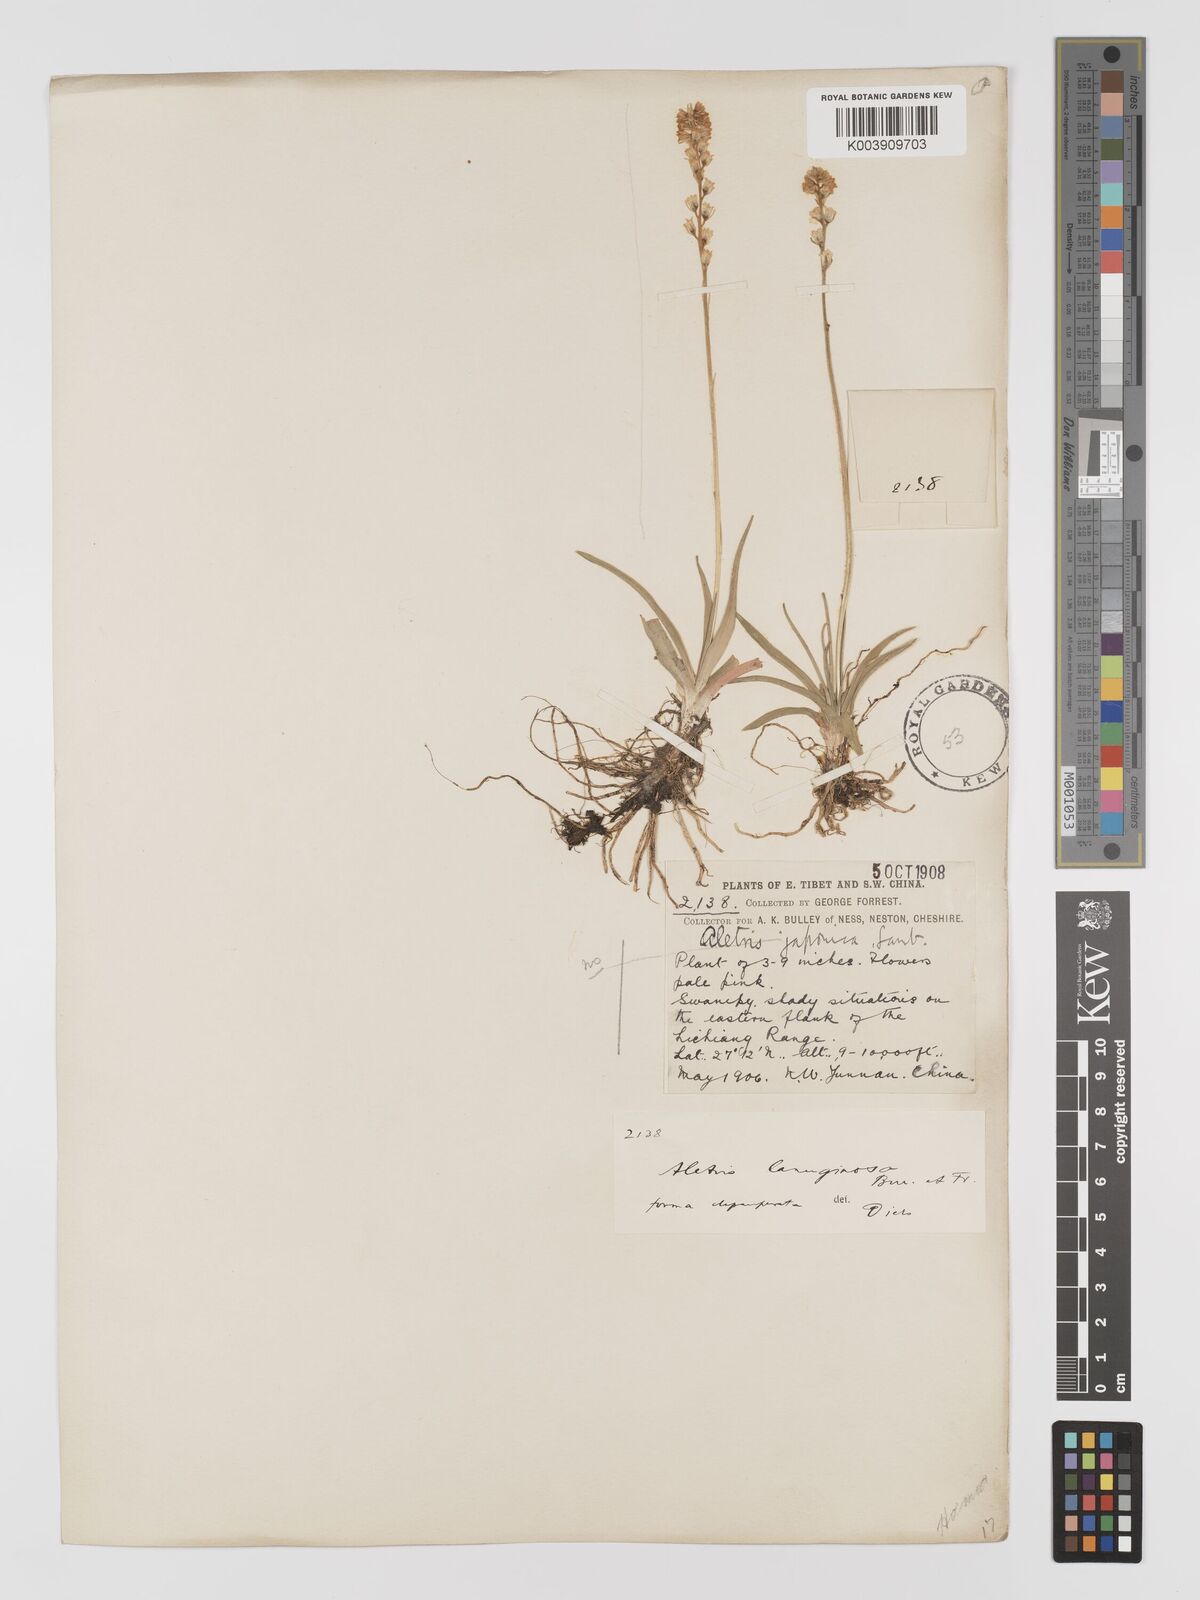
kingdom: Plantae
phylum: Tracheophyta
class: Liliopsida
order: Dioscoreales
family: Nartheciaceae
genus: Aletris
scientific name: Aletris pauciflora
